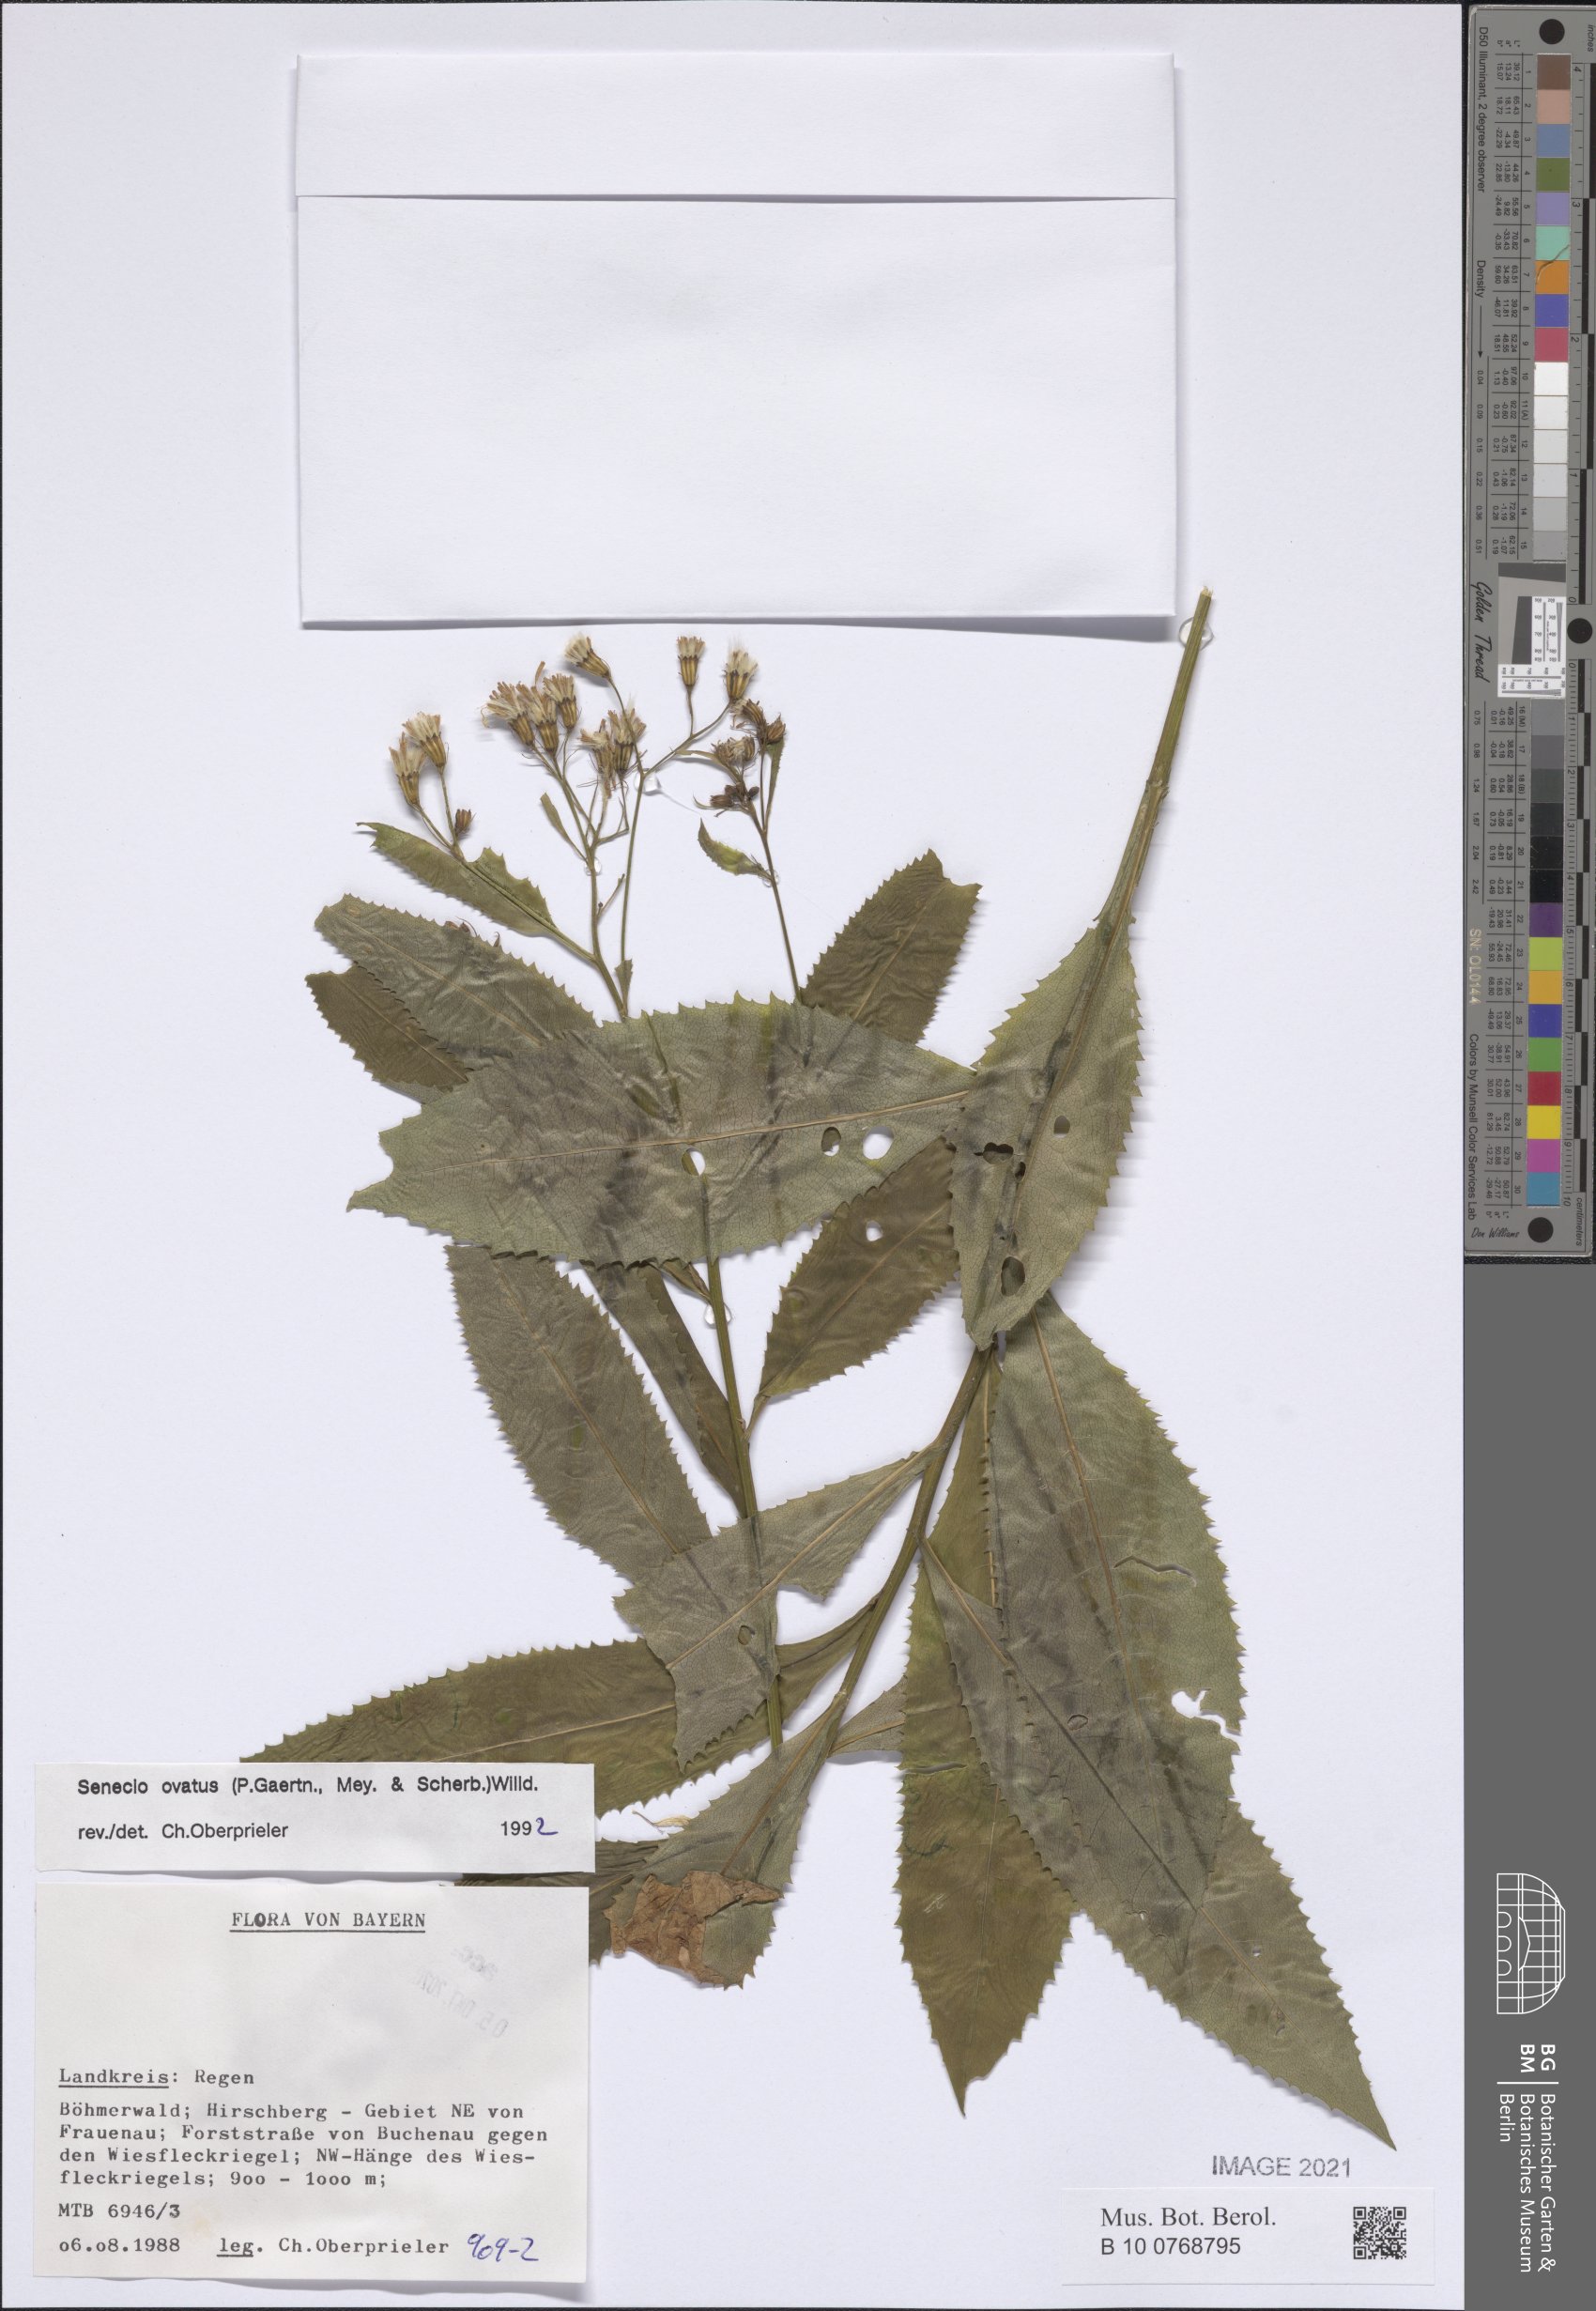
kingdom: Plantae
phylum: Tracheophyta
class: Magnoliopsida
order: Asterales
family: Asteraceae
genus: Senecio
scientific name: Senecio ovatus
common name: Wood ragwort
